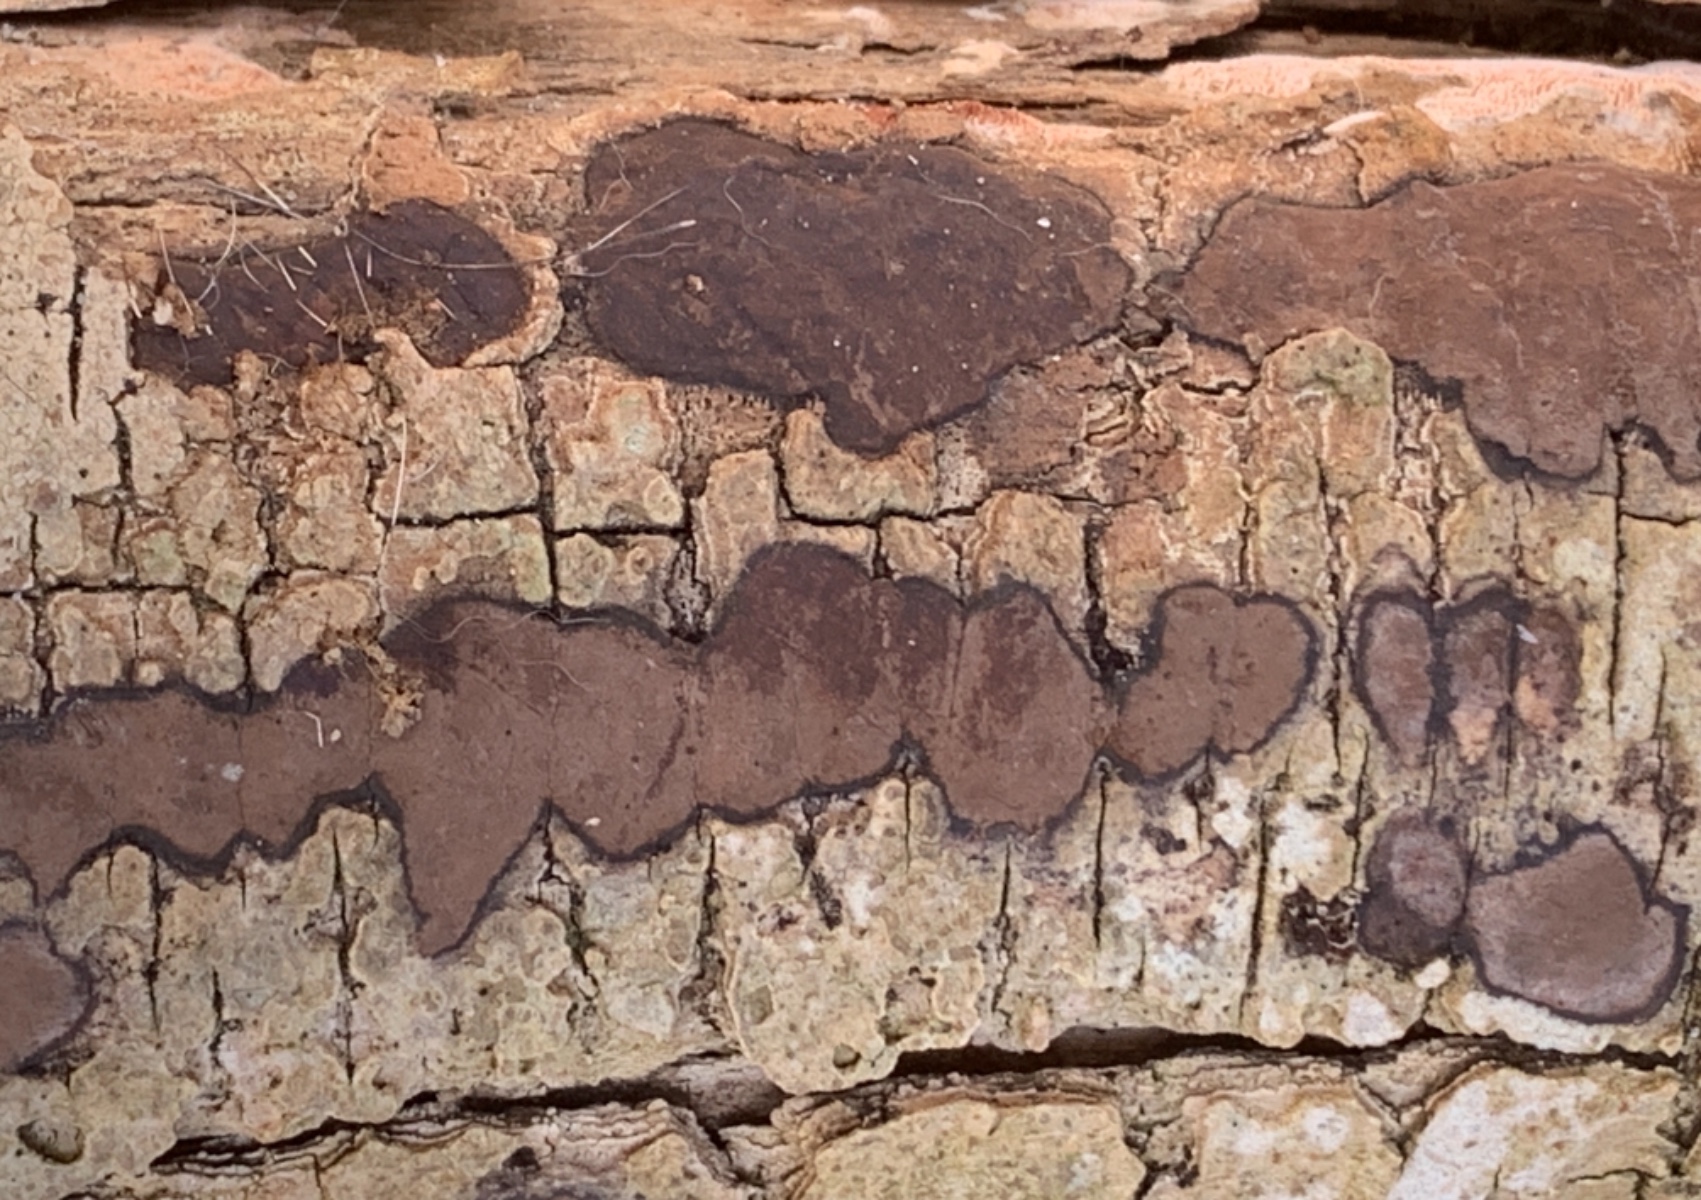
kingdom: Fungi
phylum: Ascomycota
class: Sordariomycetes
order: Xylariales
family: Hypoxylaceae
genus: Hypoxylon
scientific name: Hypoxylon petriniae
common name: nedsænket kulbær
